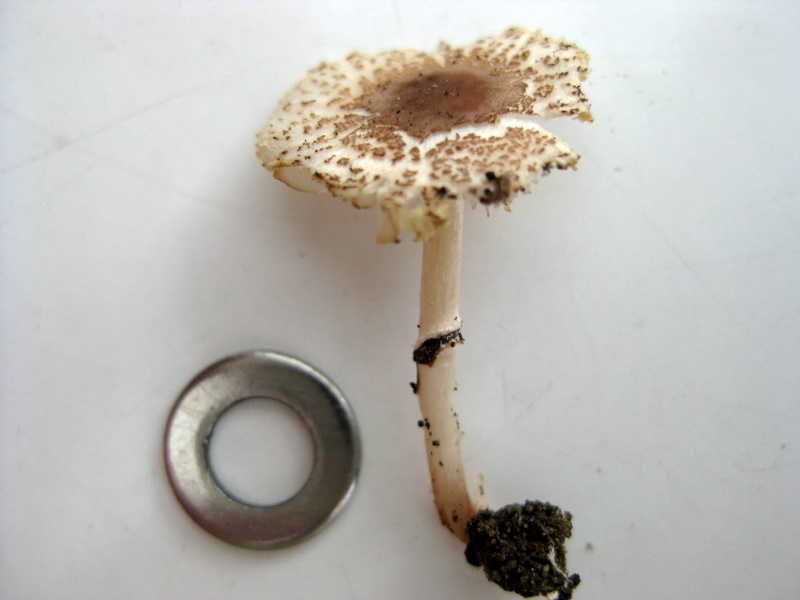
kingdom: Fungi
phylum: Basidiomycota
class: Agaricomycetes
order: Agaricales
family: Agaricaceae
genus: Lepiota
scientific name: Lepiota lilacea
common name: lillabrun parasolhat
